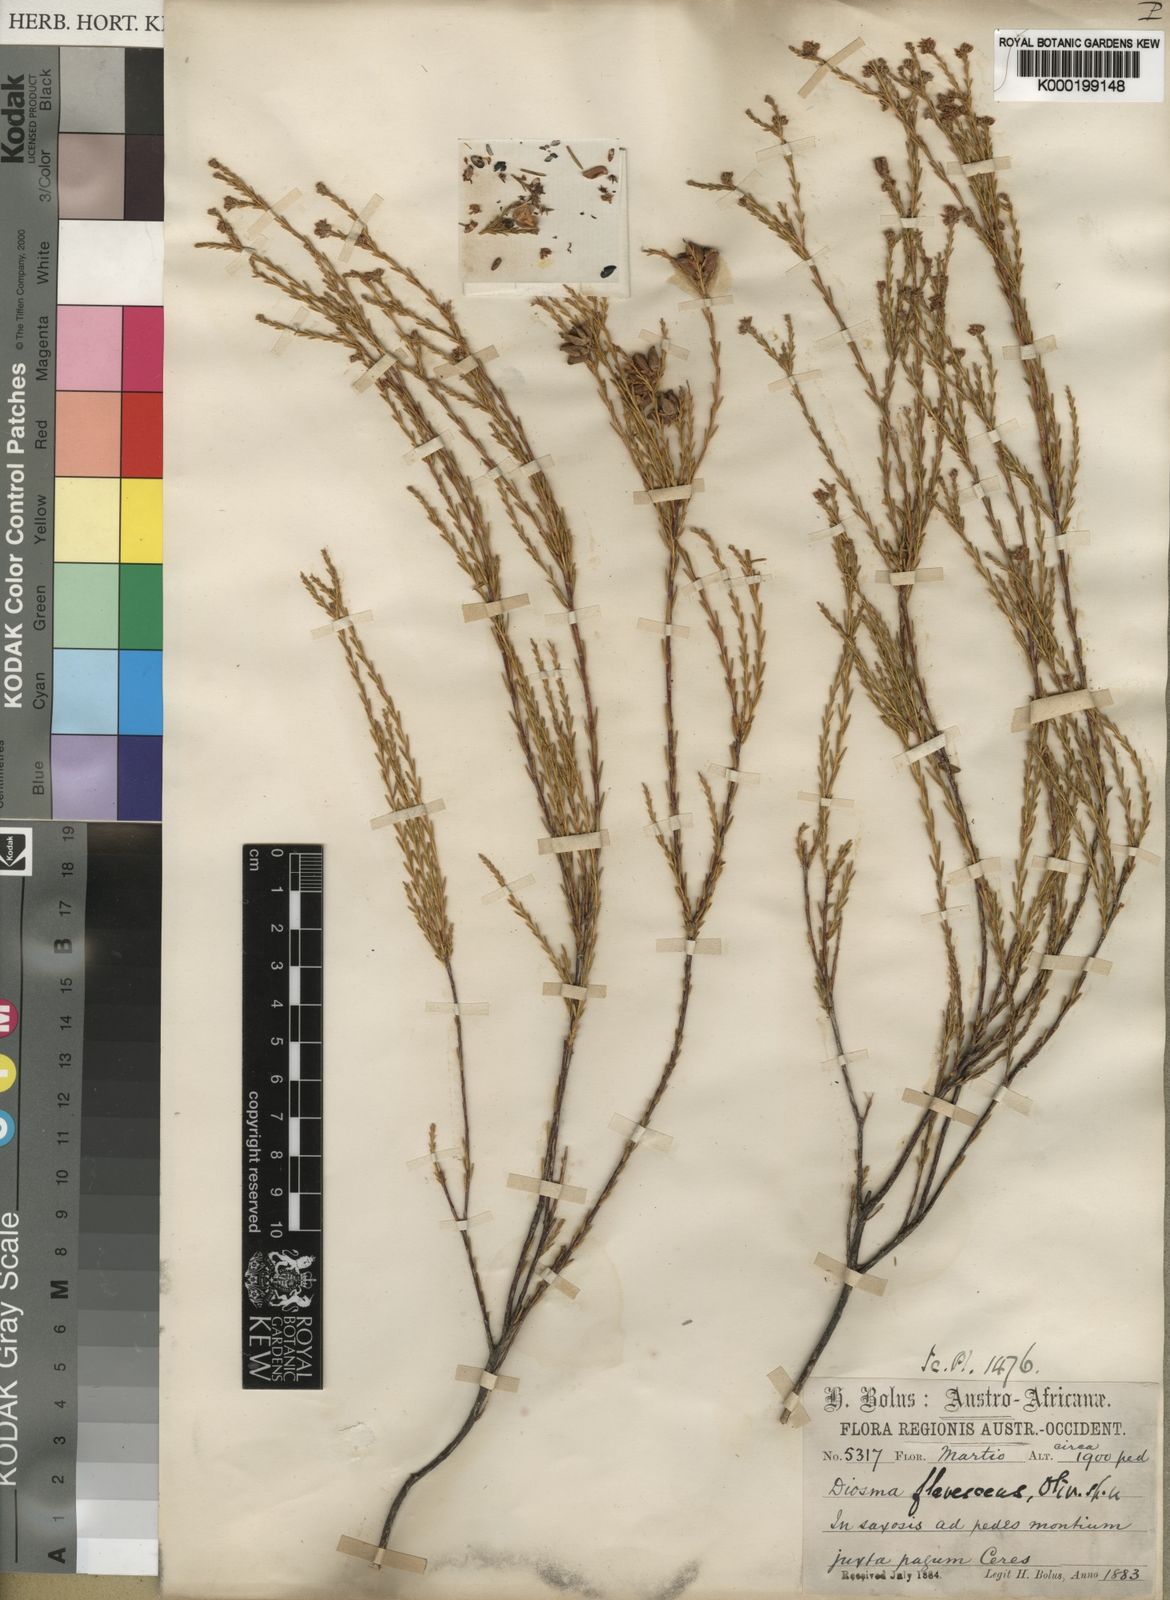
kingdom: Plantae
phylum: Tracheophyta
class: Magnoliopsida
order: Sapindales
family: Rutaceae
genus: Diosma
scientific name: Diosma ramosissima
